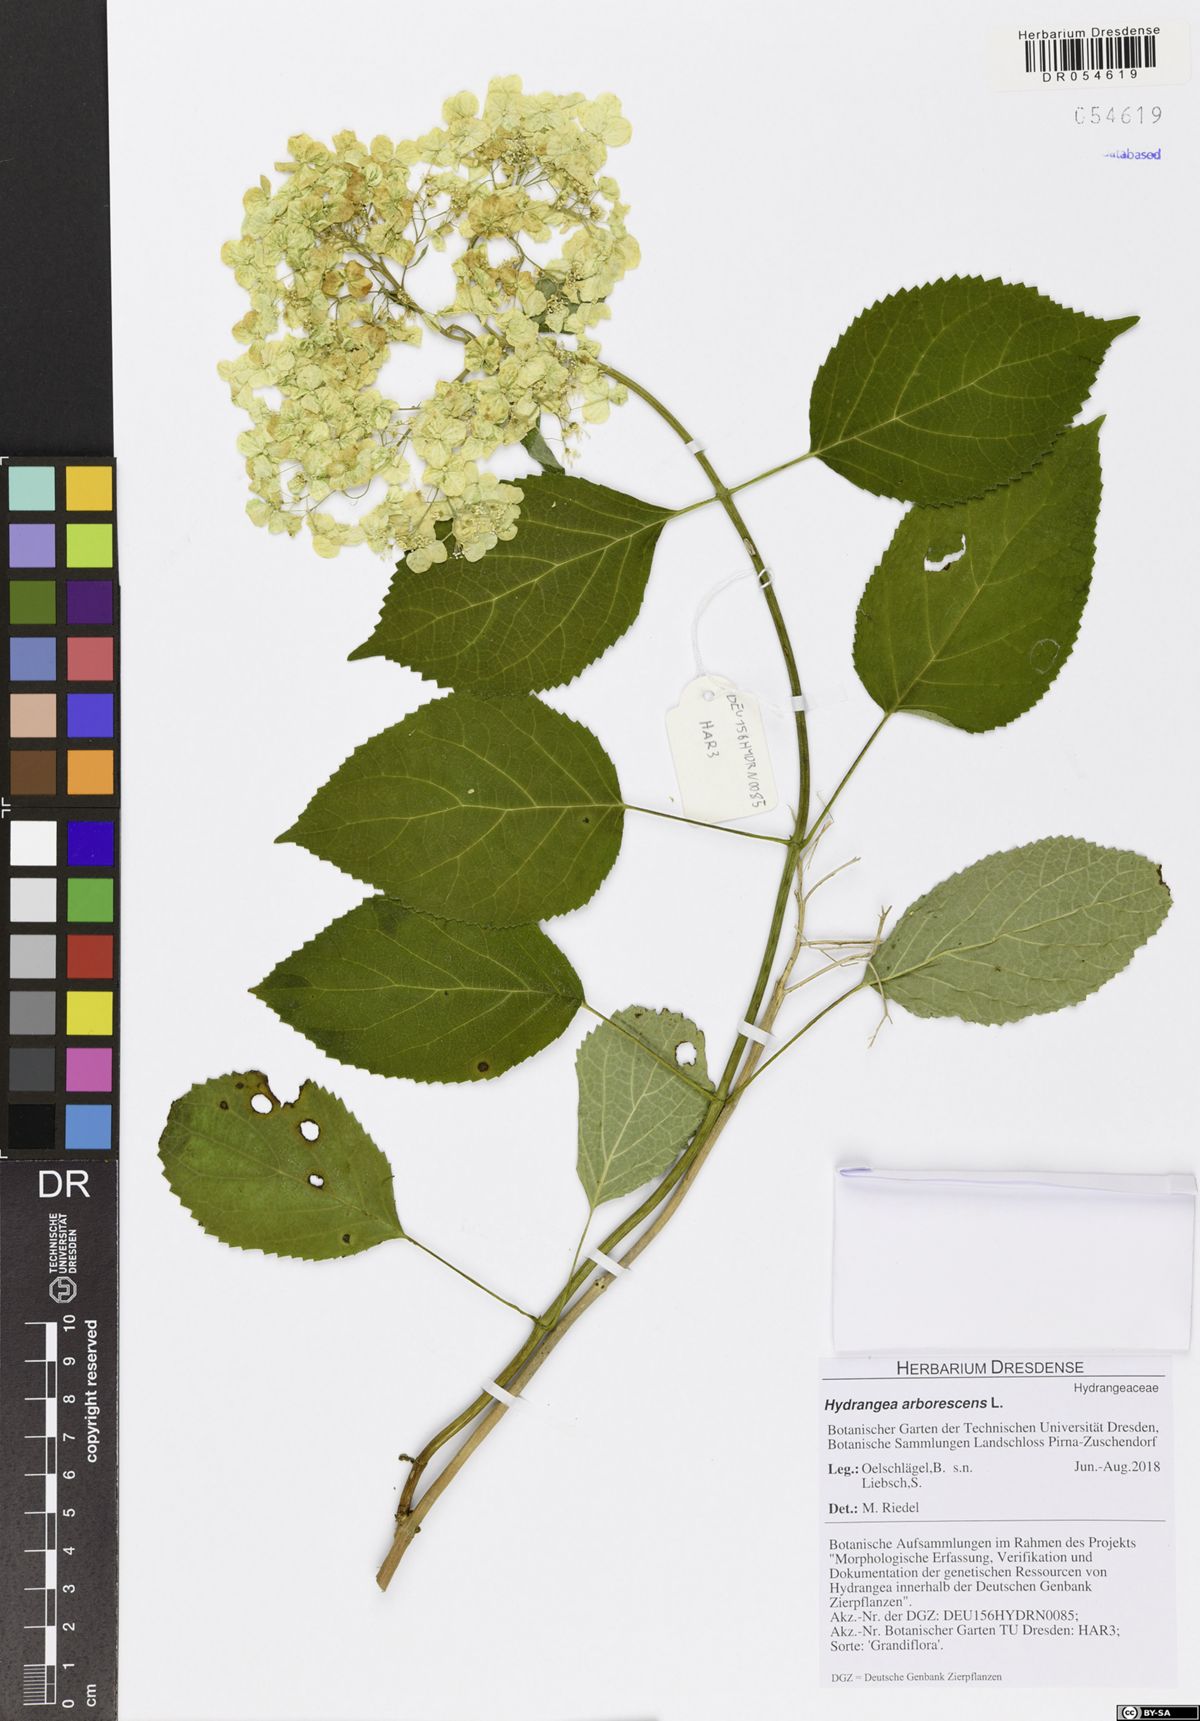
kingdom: Plantae
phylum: Tracheophyta
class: Magnoliopsida
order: Cornales
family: Hydrangeaceae
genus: Hydrangea
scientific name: Hydrangea arborescens
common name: Sevenbark
